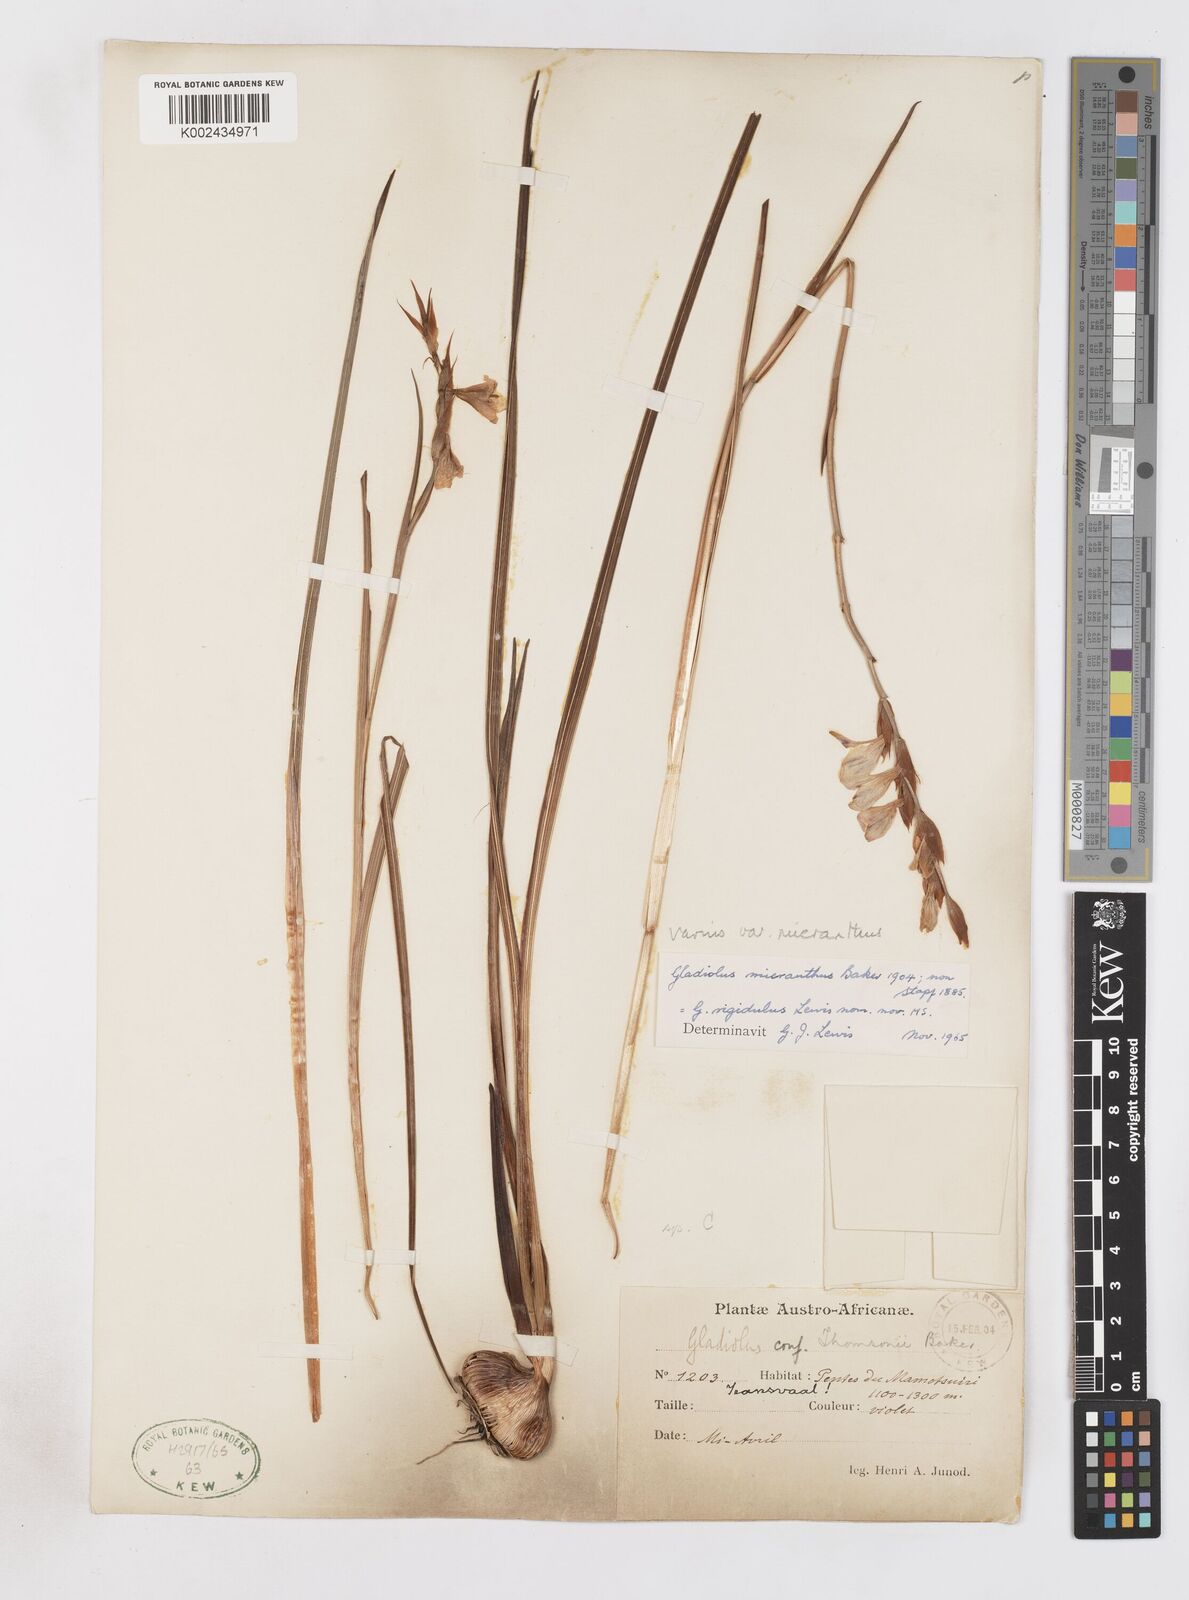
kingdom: Plantae
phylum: Tracheophyta
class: Liliopsida
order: Asparagales
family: Iridaceae
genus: Gladiolus
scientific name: Gladiolus ferrugineus
